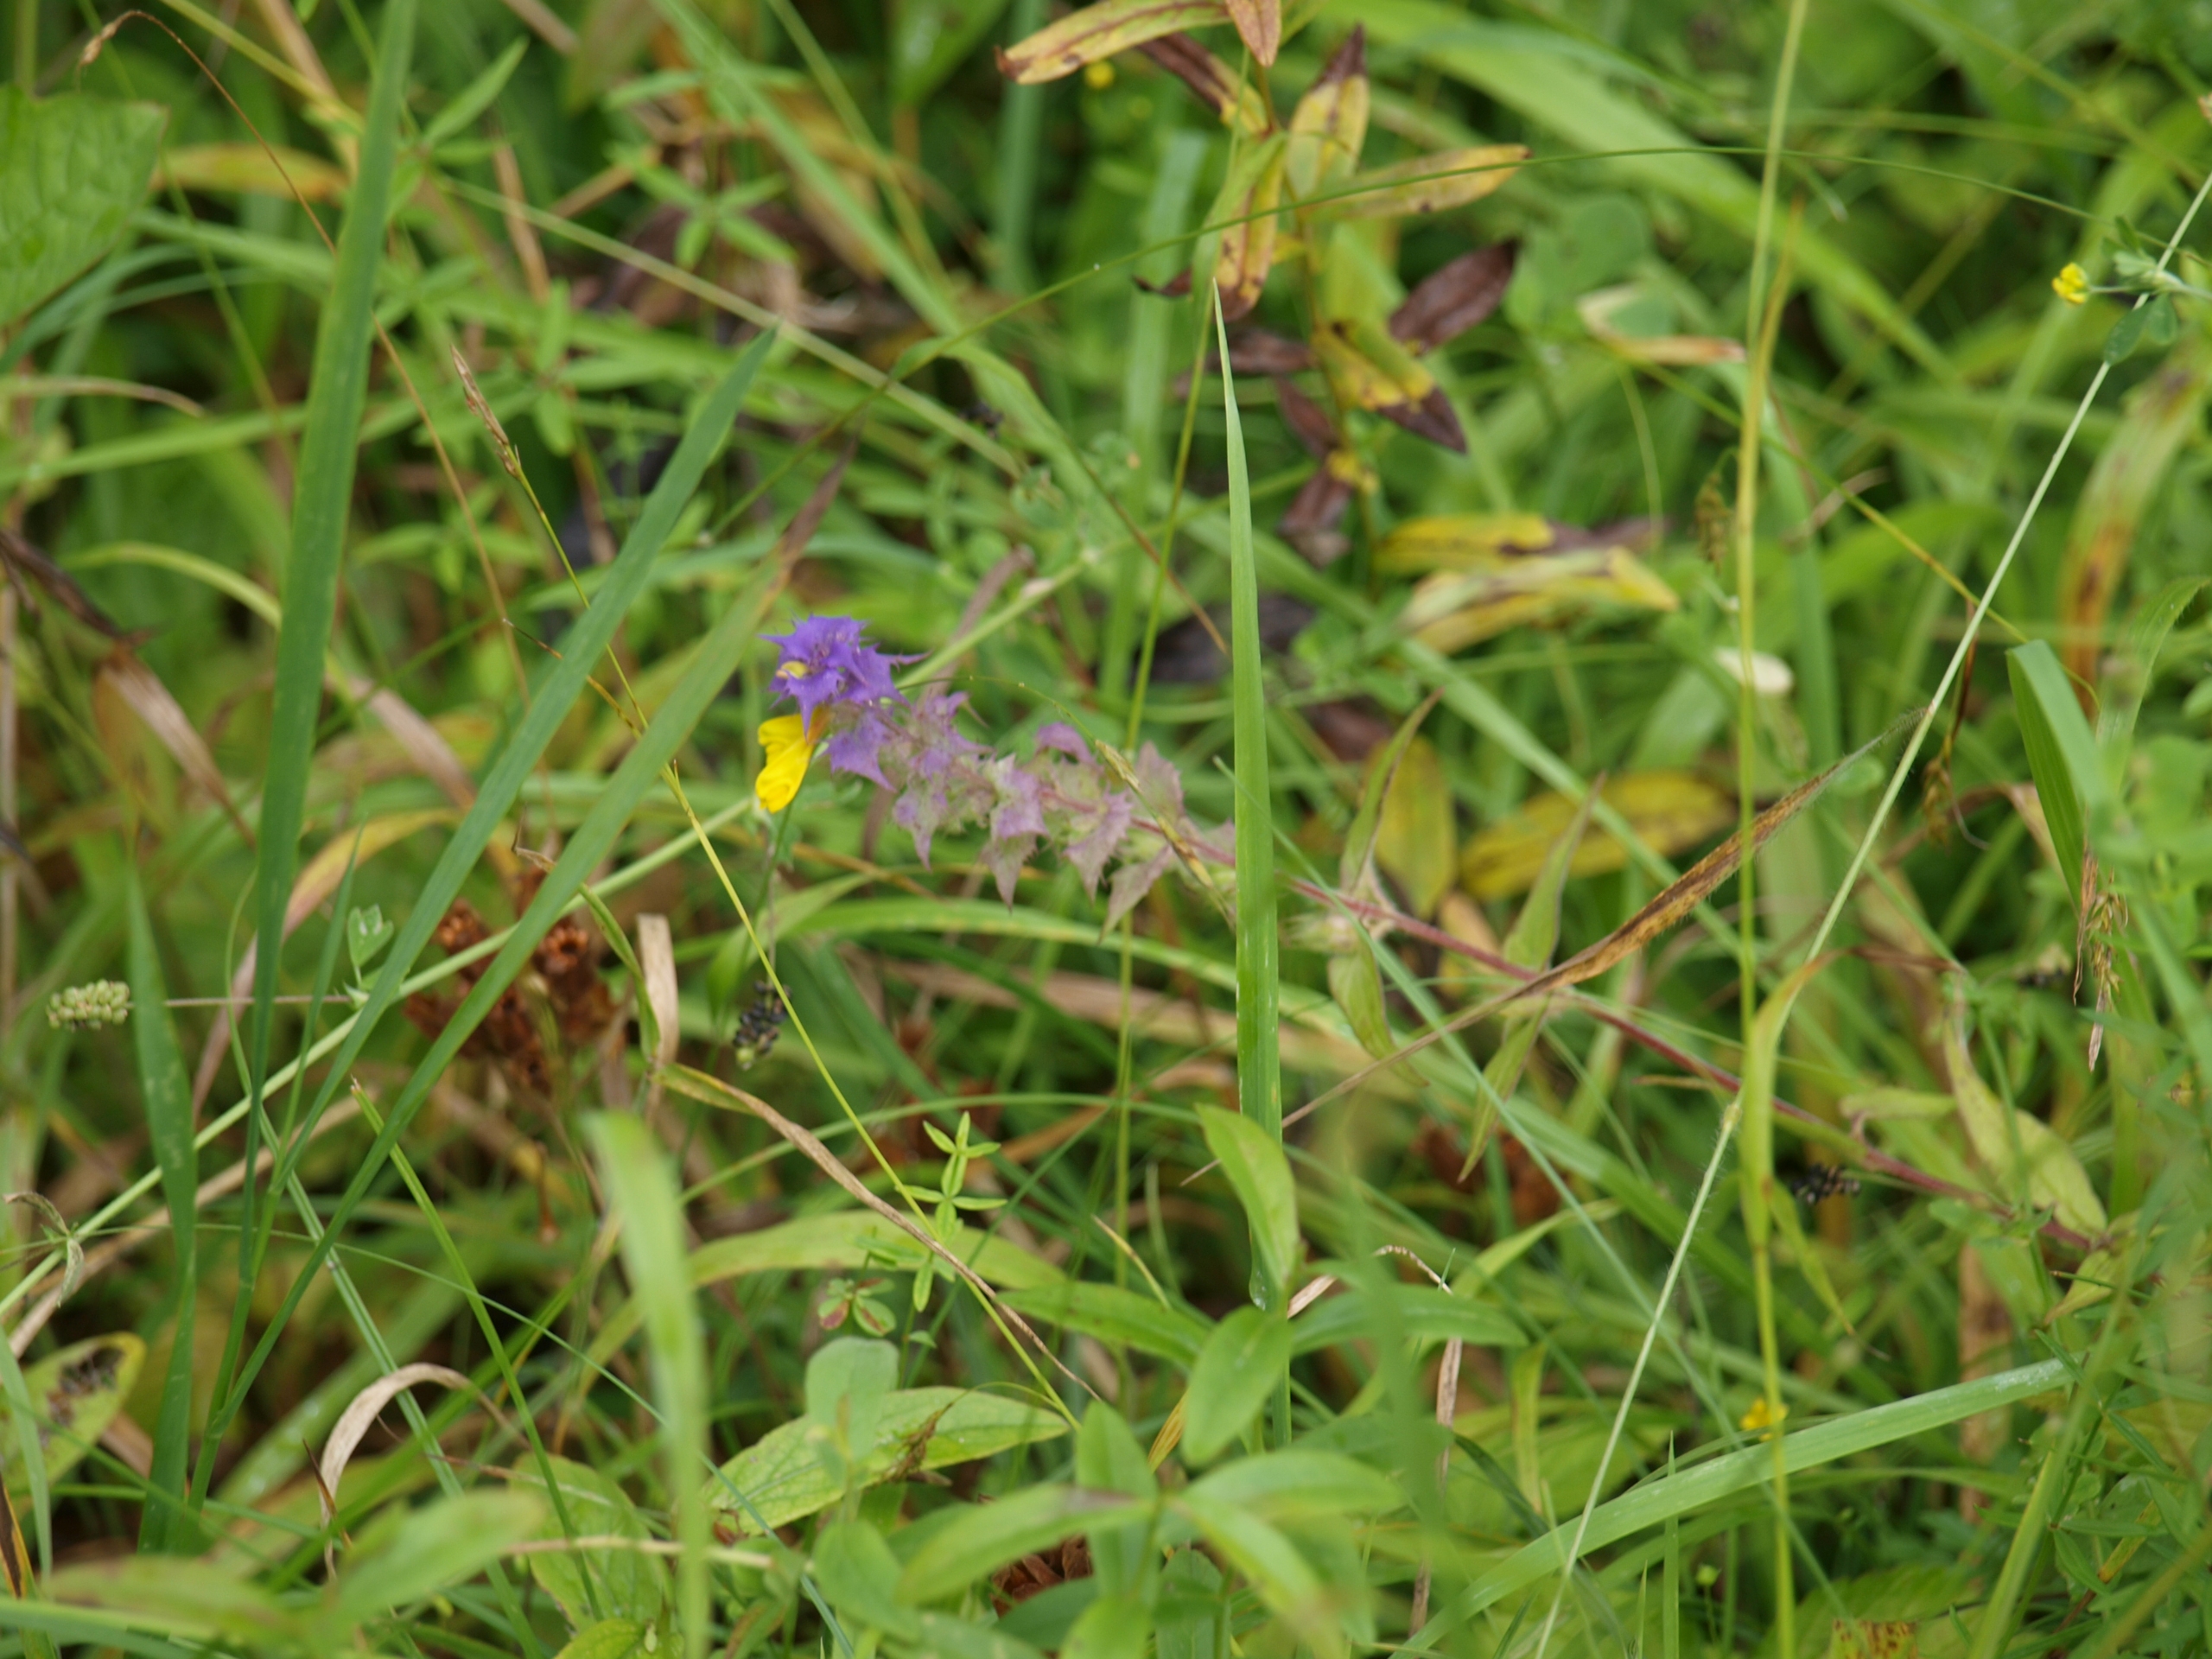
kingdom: Plantae
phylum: Tracheophyta
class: Magnoliopsida
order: Lamiales
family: Orobanchaceae
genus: Melampyrum
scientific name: Melampyrum nemorosum
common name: Blåtoppet kohvede
